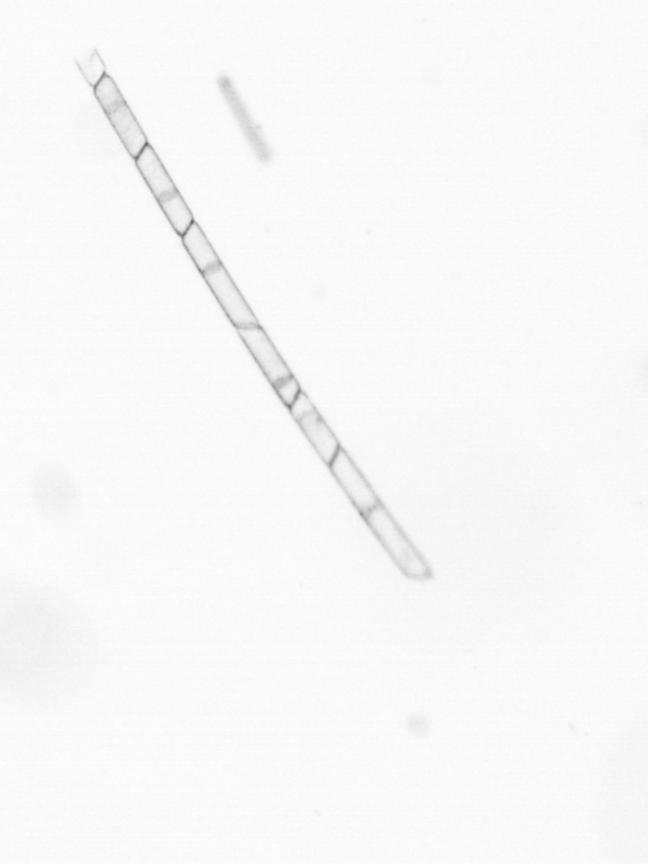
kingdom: Chromista
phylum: Ochrophyta
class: Bacillariophyceae
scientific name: Bacillariophyceae
